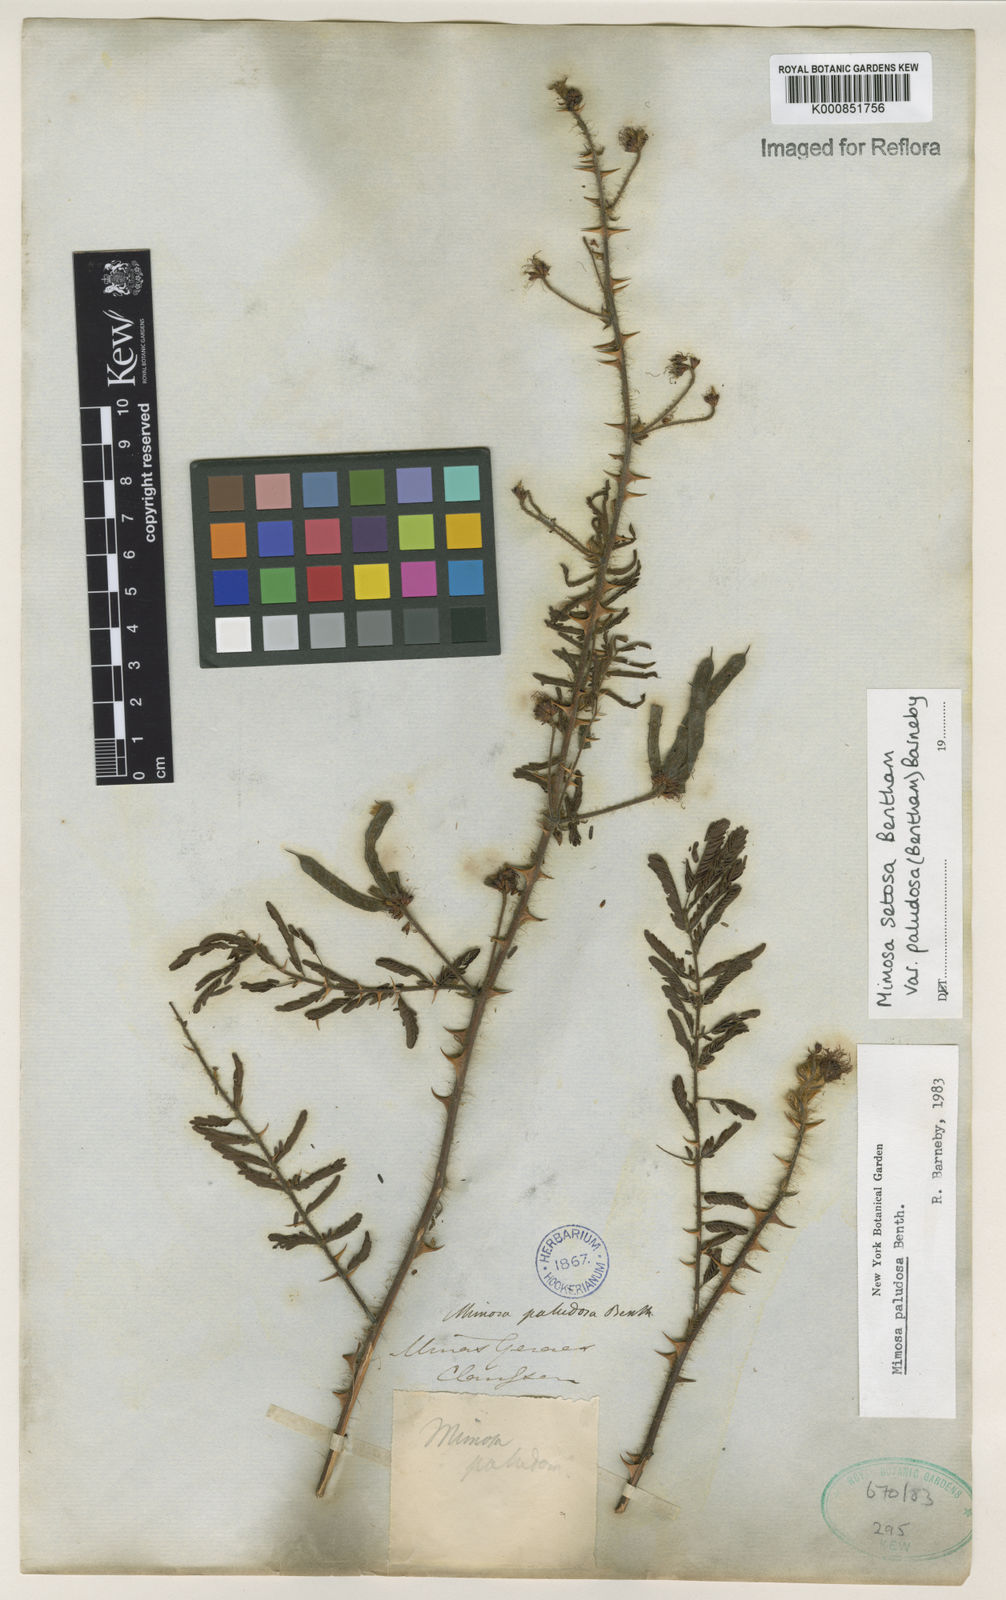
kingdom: Plantae
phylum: Tracheophyta
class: Magnoliopsida
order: Fabales
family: Fabaceae
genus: Mimosa
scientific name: Mimosa paludosa
